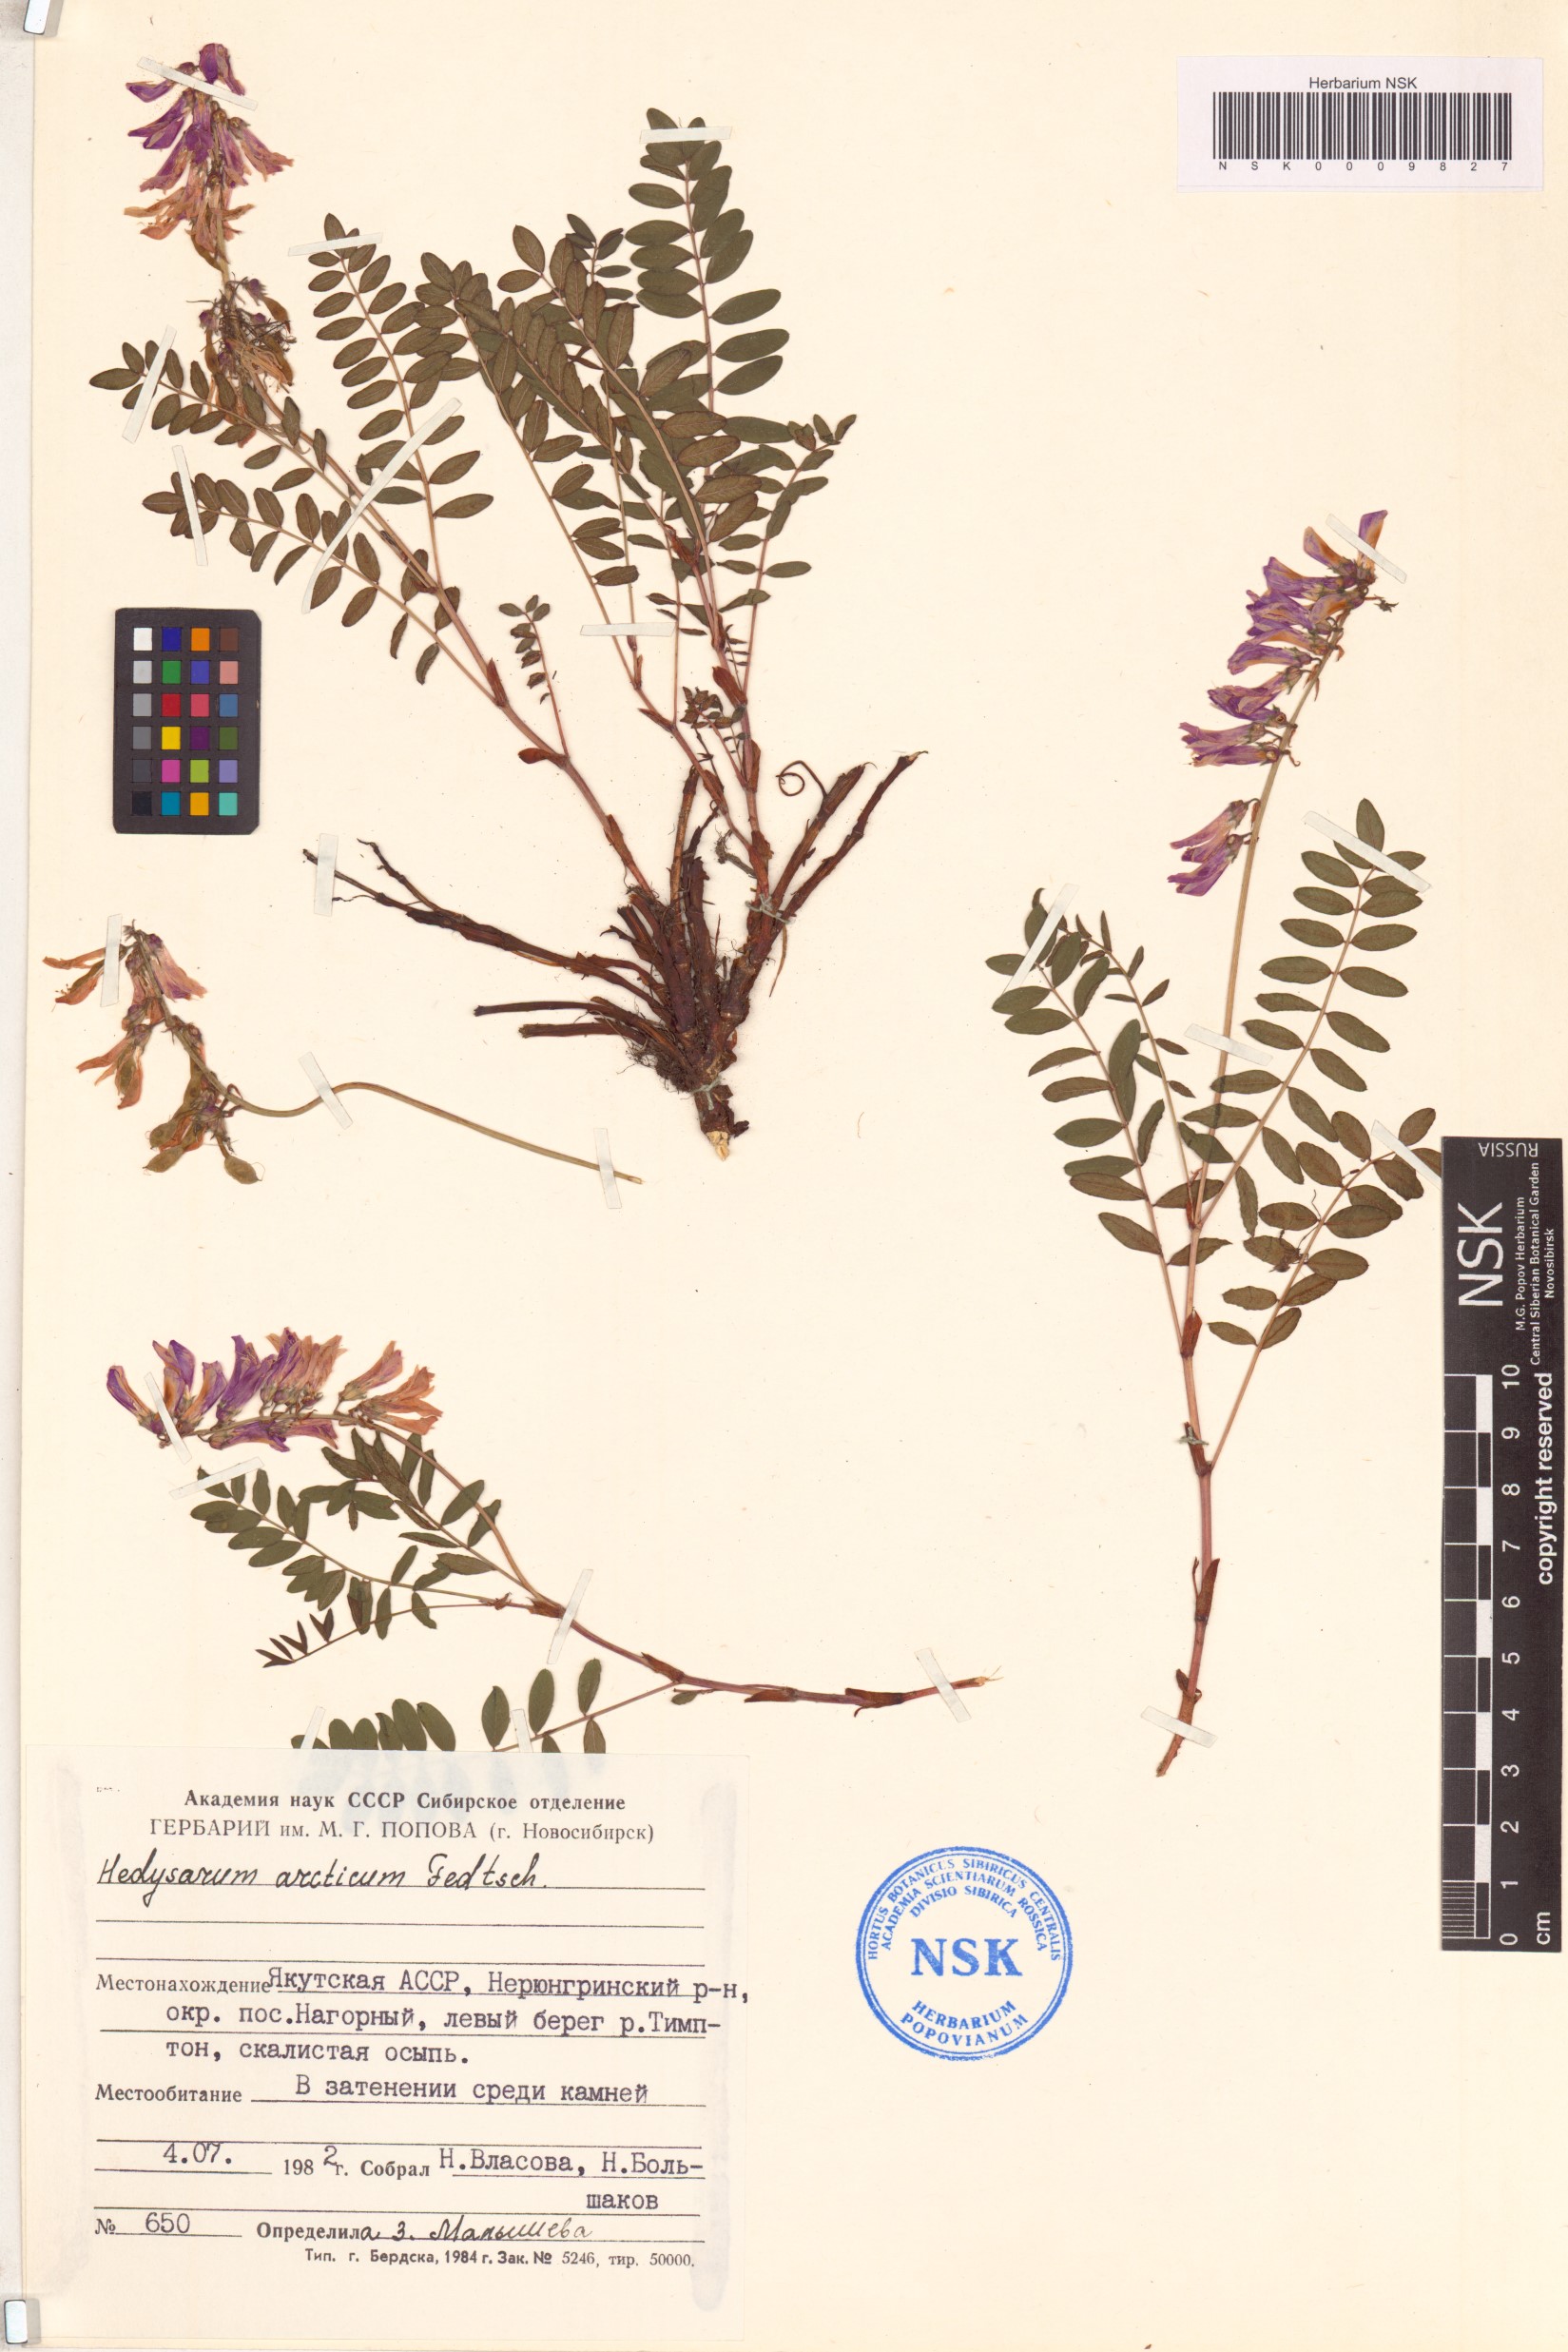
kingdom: Plantae
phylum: Tracheophyta
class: Magnoliopsida
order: Fabales
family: Fabaceae
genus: Hedysarum
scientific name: Hedysarum hedysaroides
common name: Alpine french-honeysuckle
